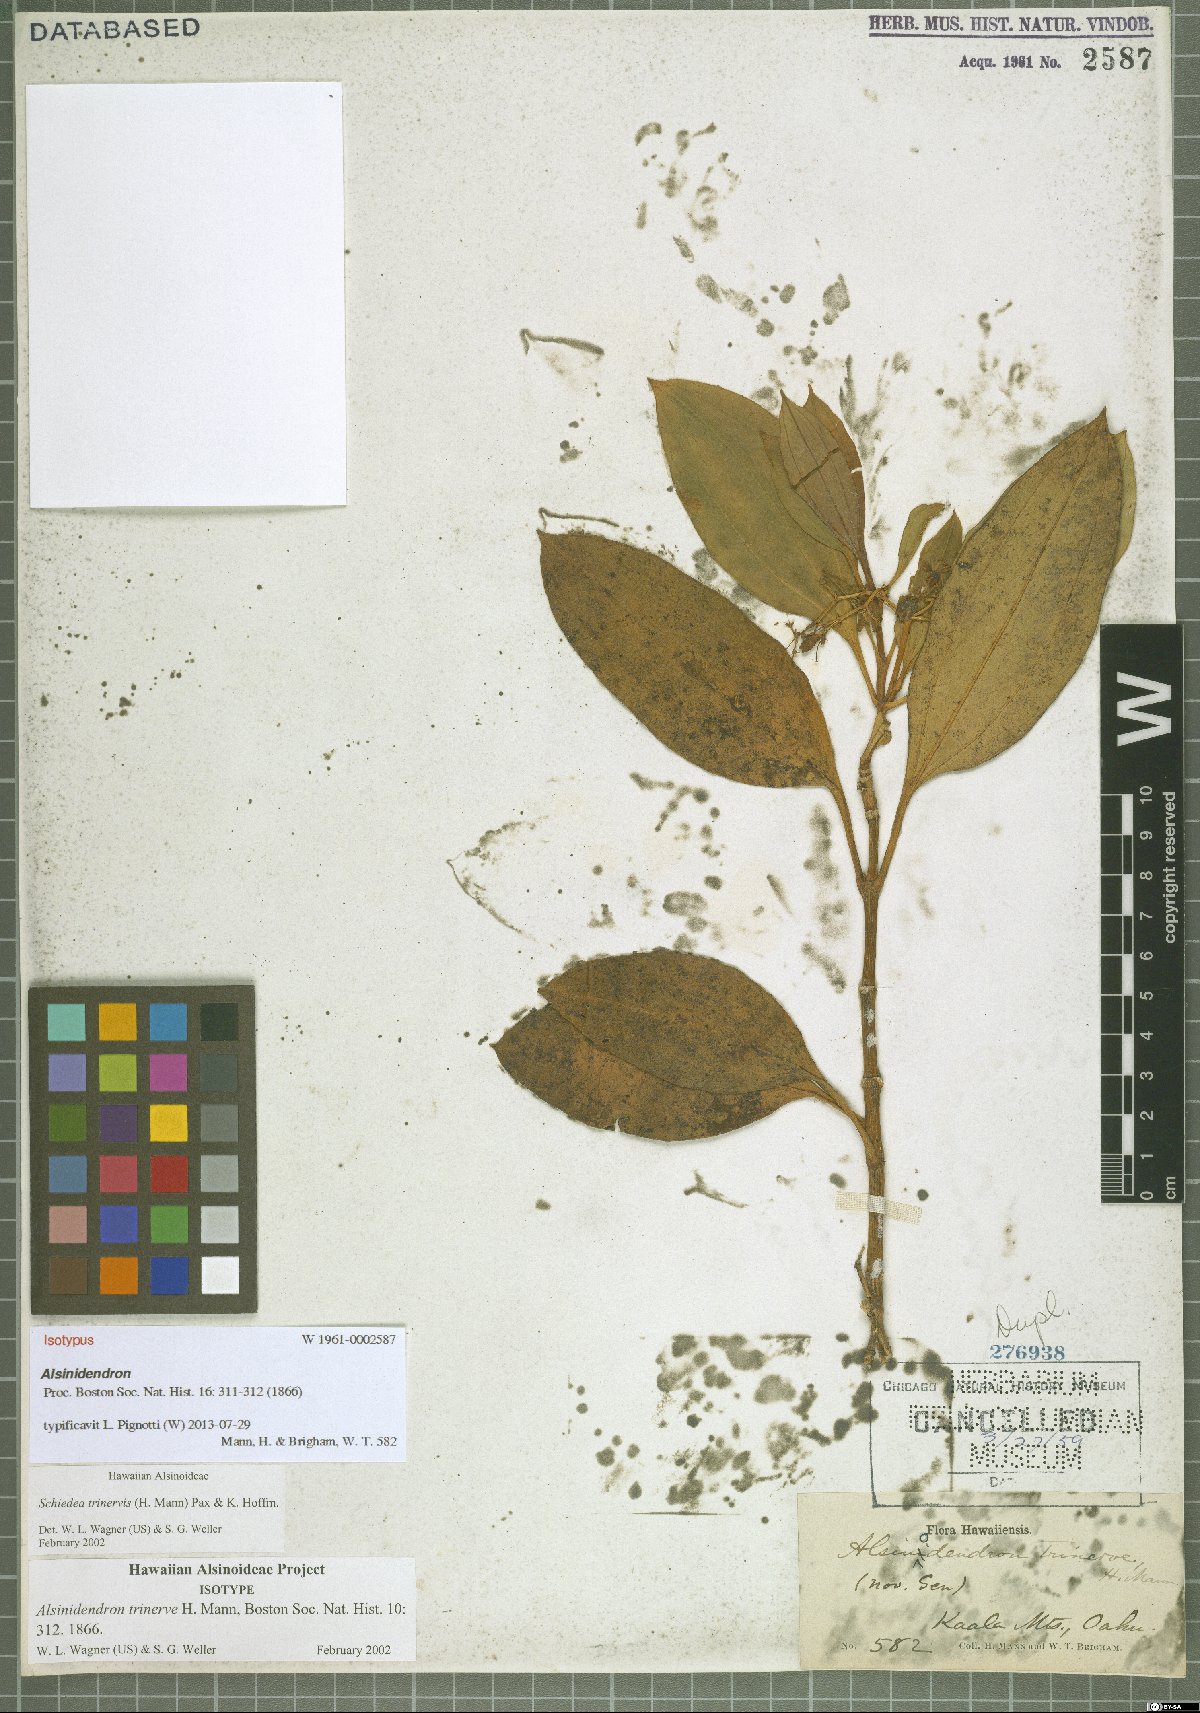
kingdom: Plantae
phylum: Tracheophyta
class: Magnoliopsida
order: Caryophyllales
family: Caryophyllaceae
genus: Schiedea
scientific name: Schiedea trinervis
